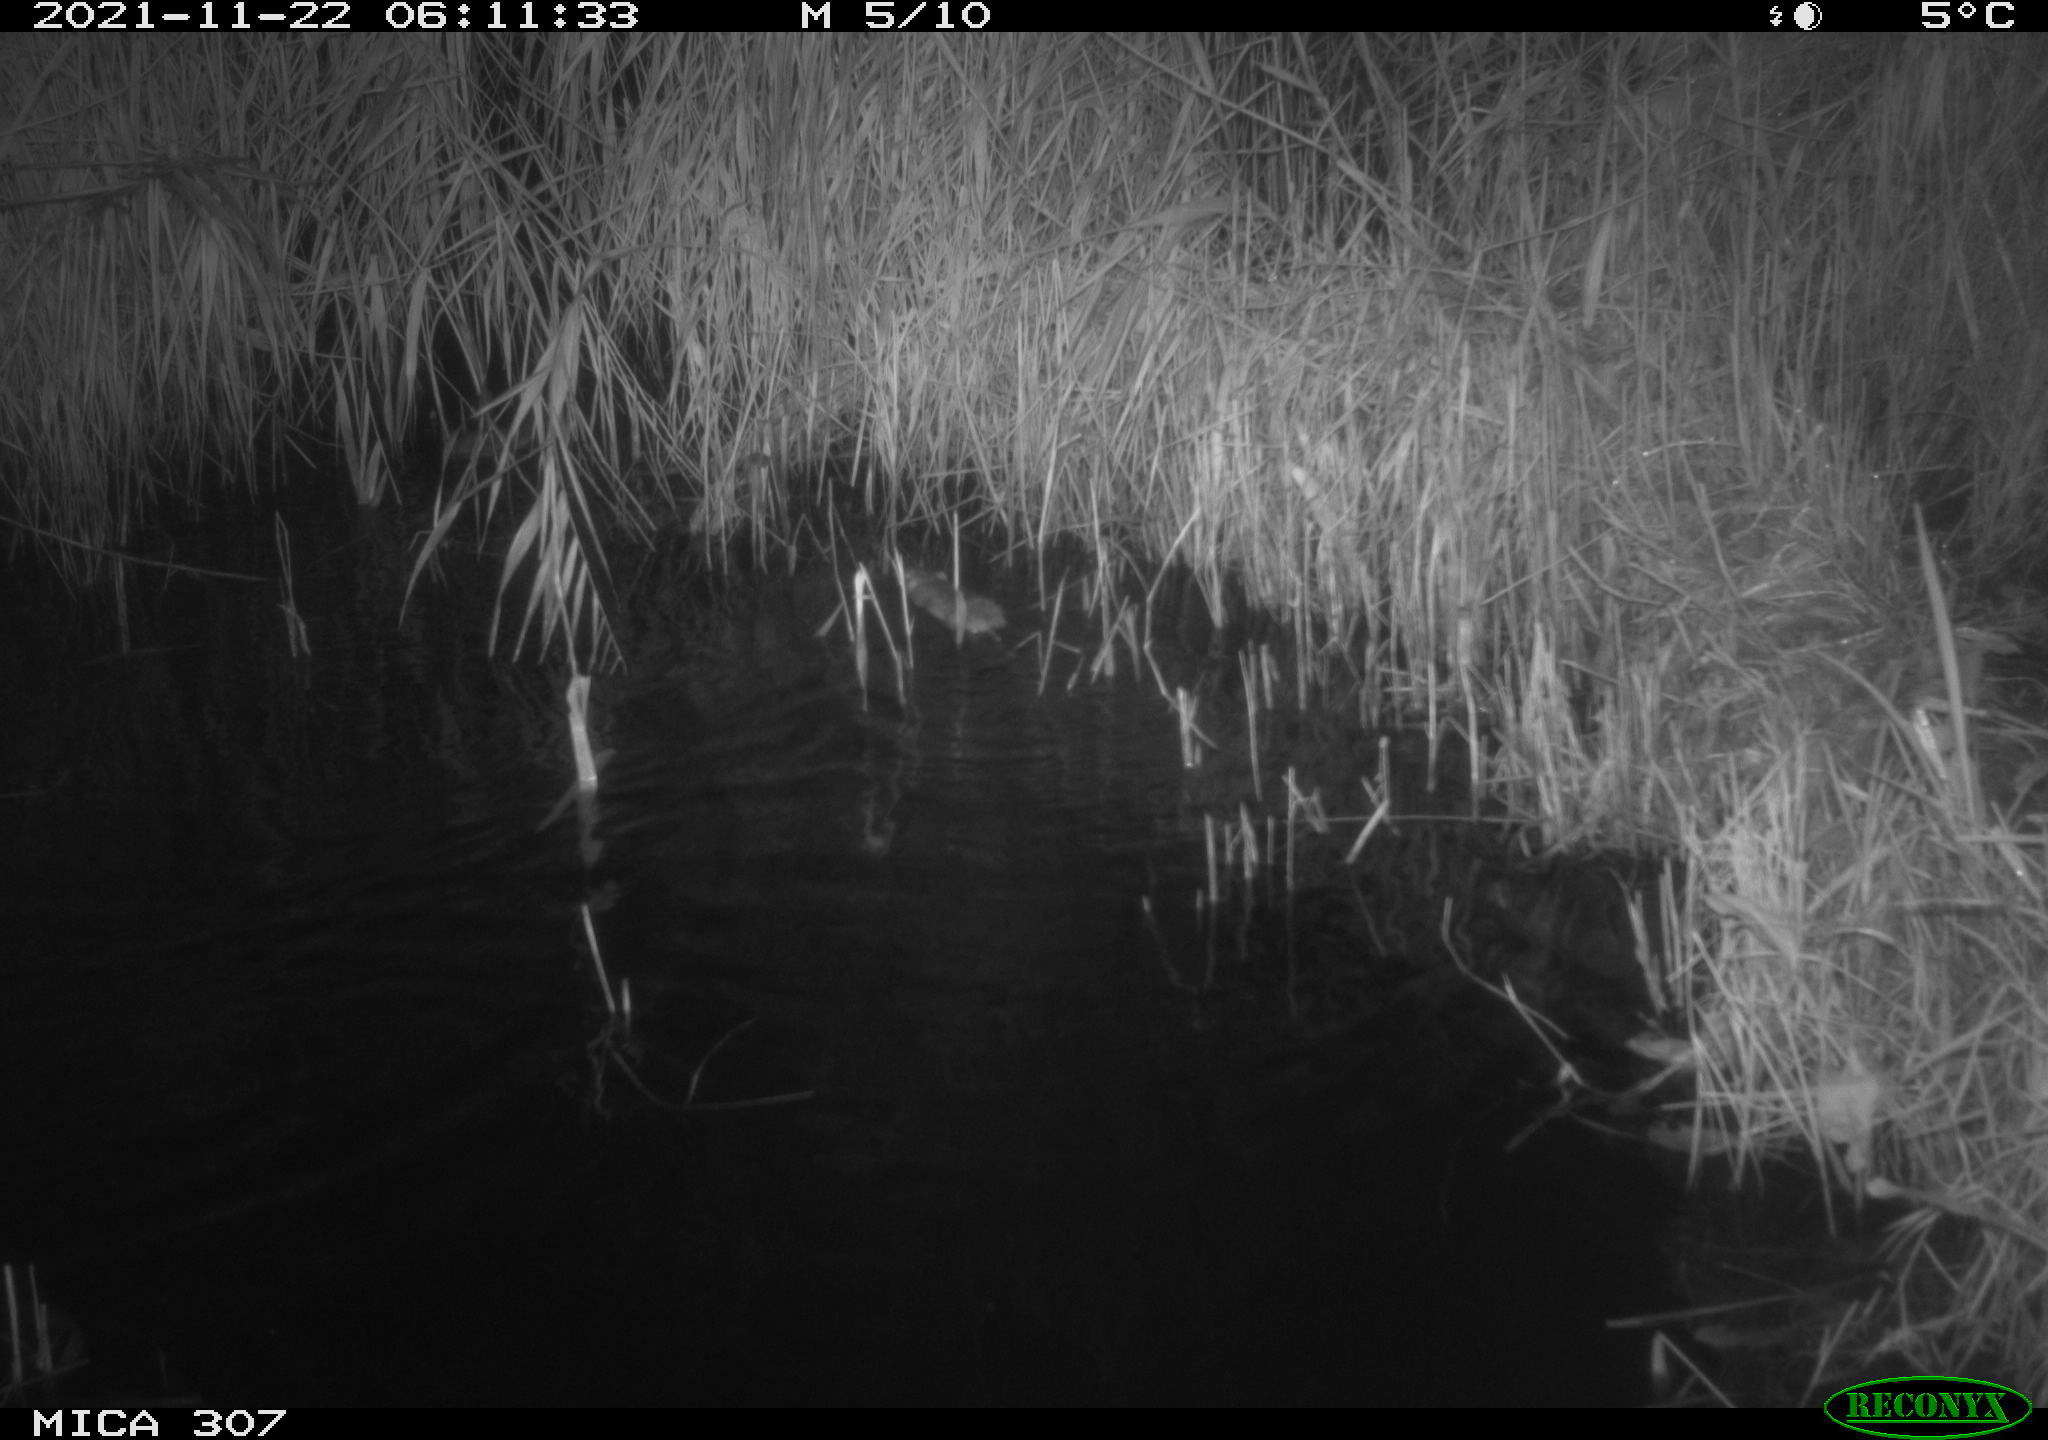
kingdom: Animalia
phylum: Chordata
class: Mammalia
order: Rodentia
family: Muridae
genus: Rattus
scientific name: Rattus norvegicus
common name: Brown rat
